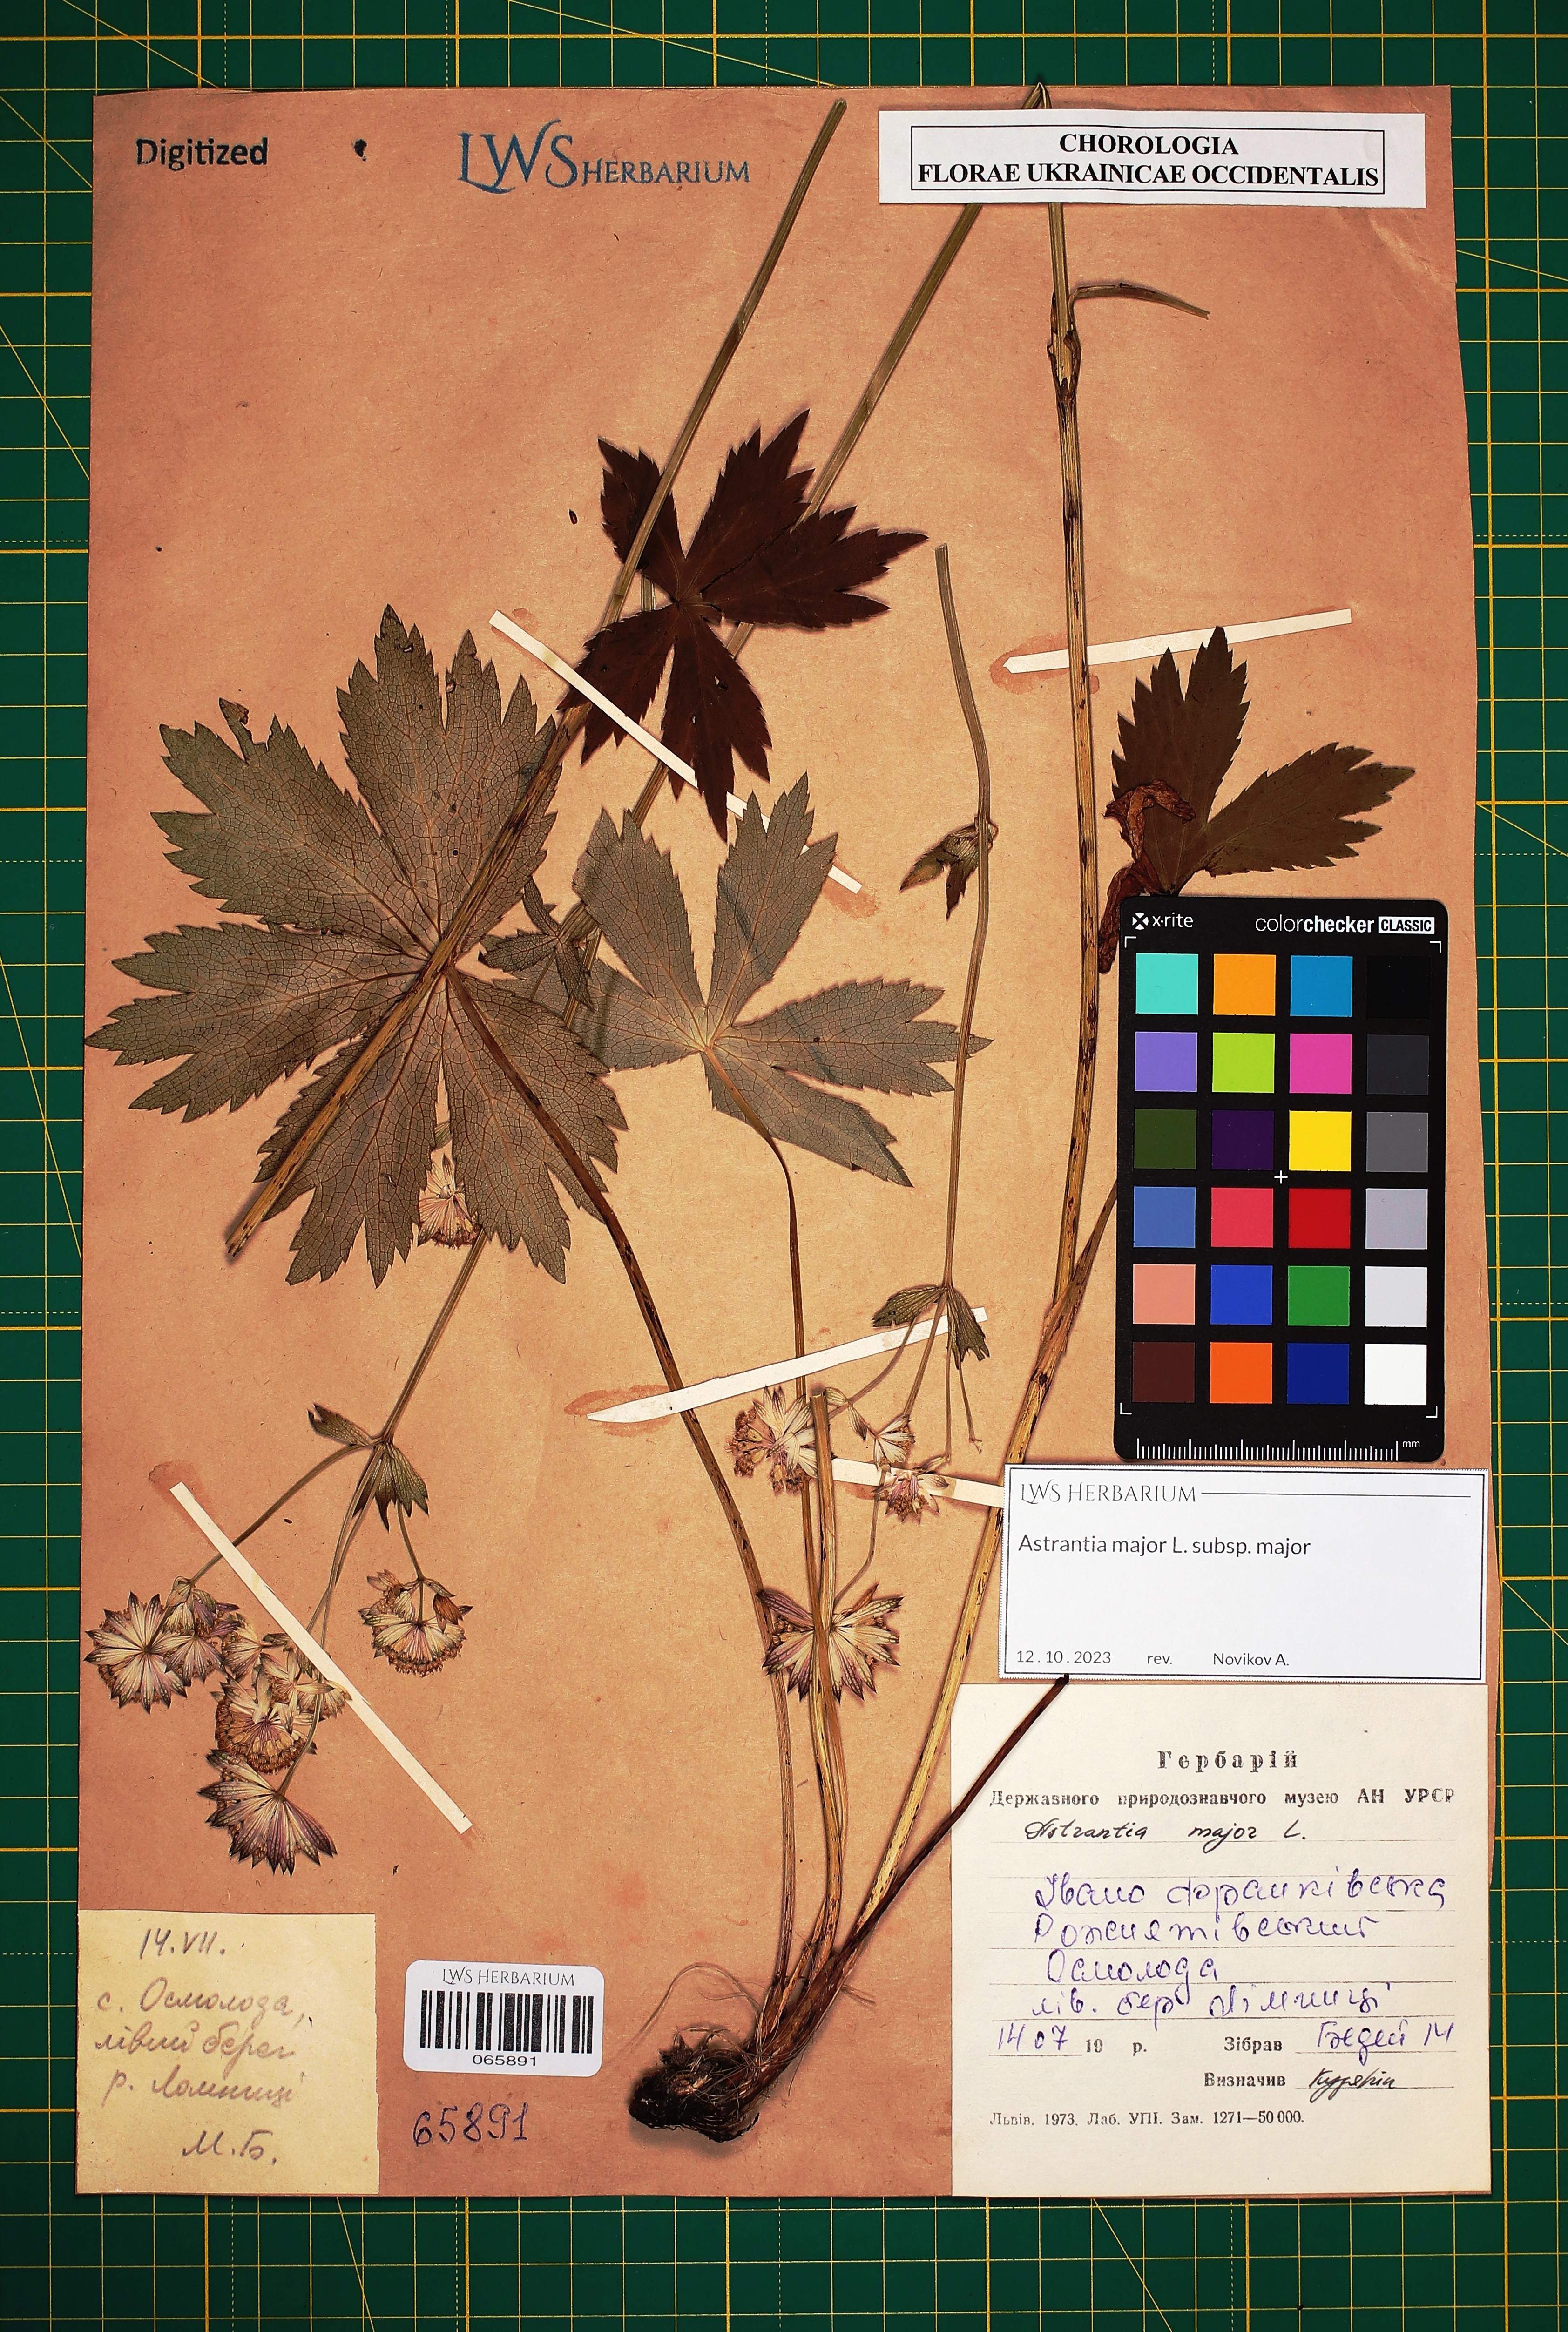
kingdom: Plantae
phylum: Tracheophyta
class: Magnoliopsida
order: Apiales
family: Apiaceae
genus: Astrantia
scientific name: Astrantia major
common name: Greater masterwort
